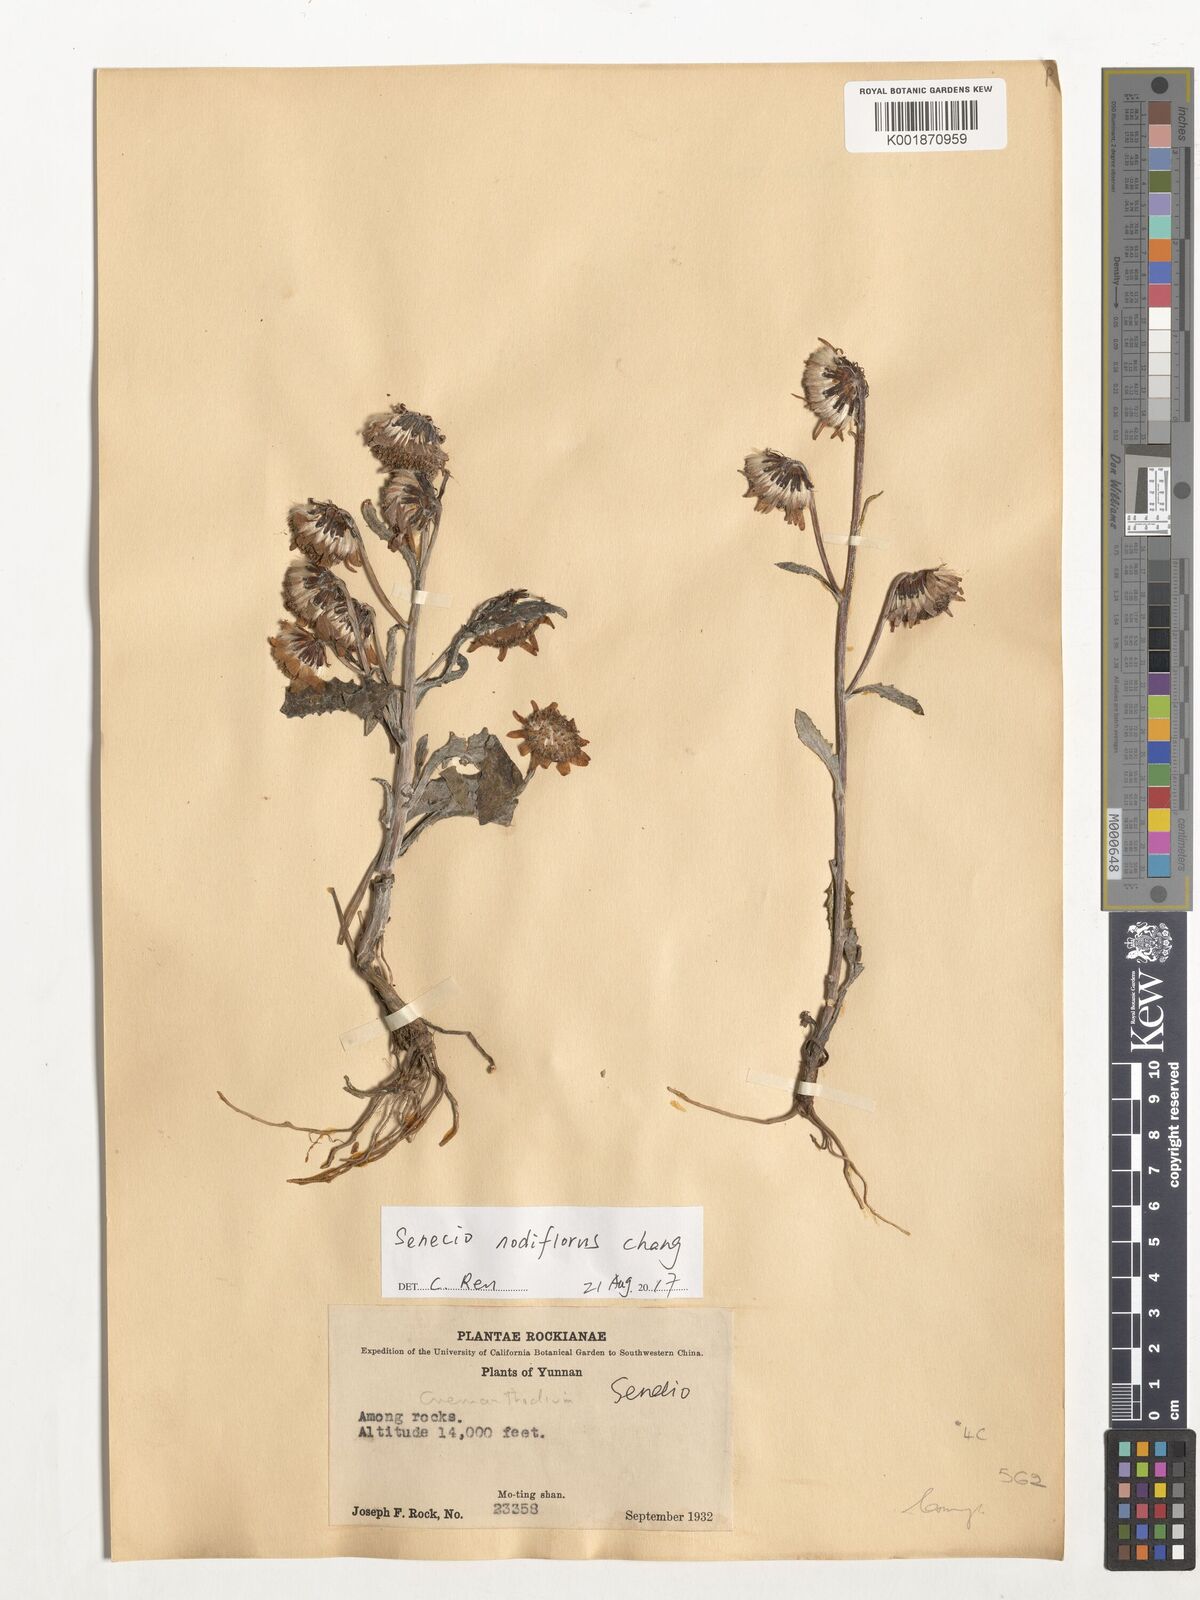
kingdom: Plantae
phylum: Tracheophyta
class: Magnoliopsida
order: Asterales
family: Asteraceae
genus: Senecio
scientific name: Senecio nodiflorus
